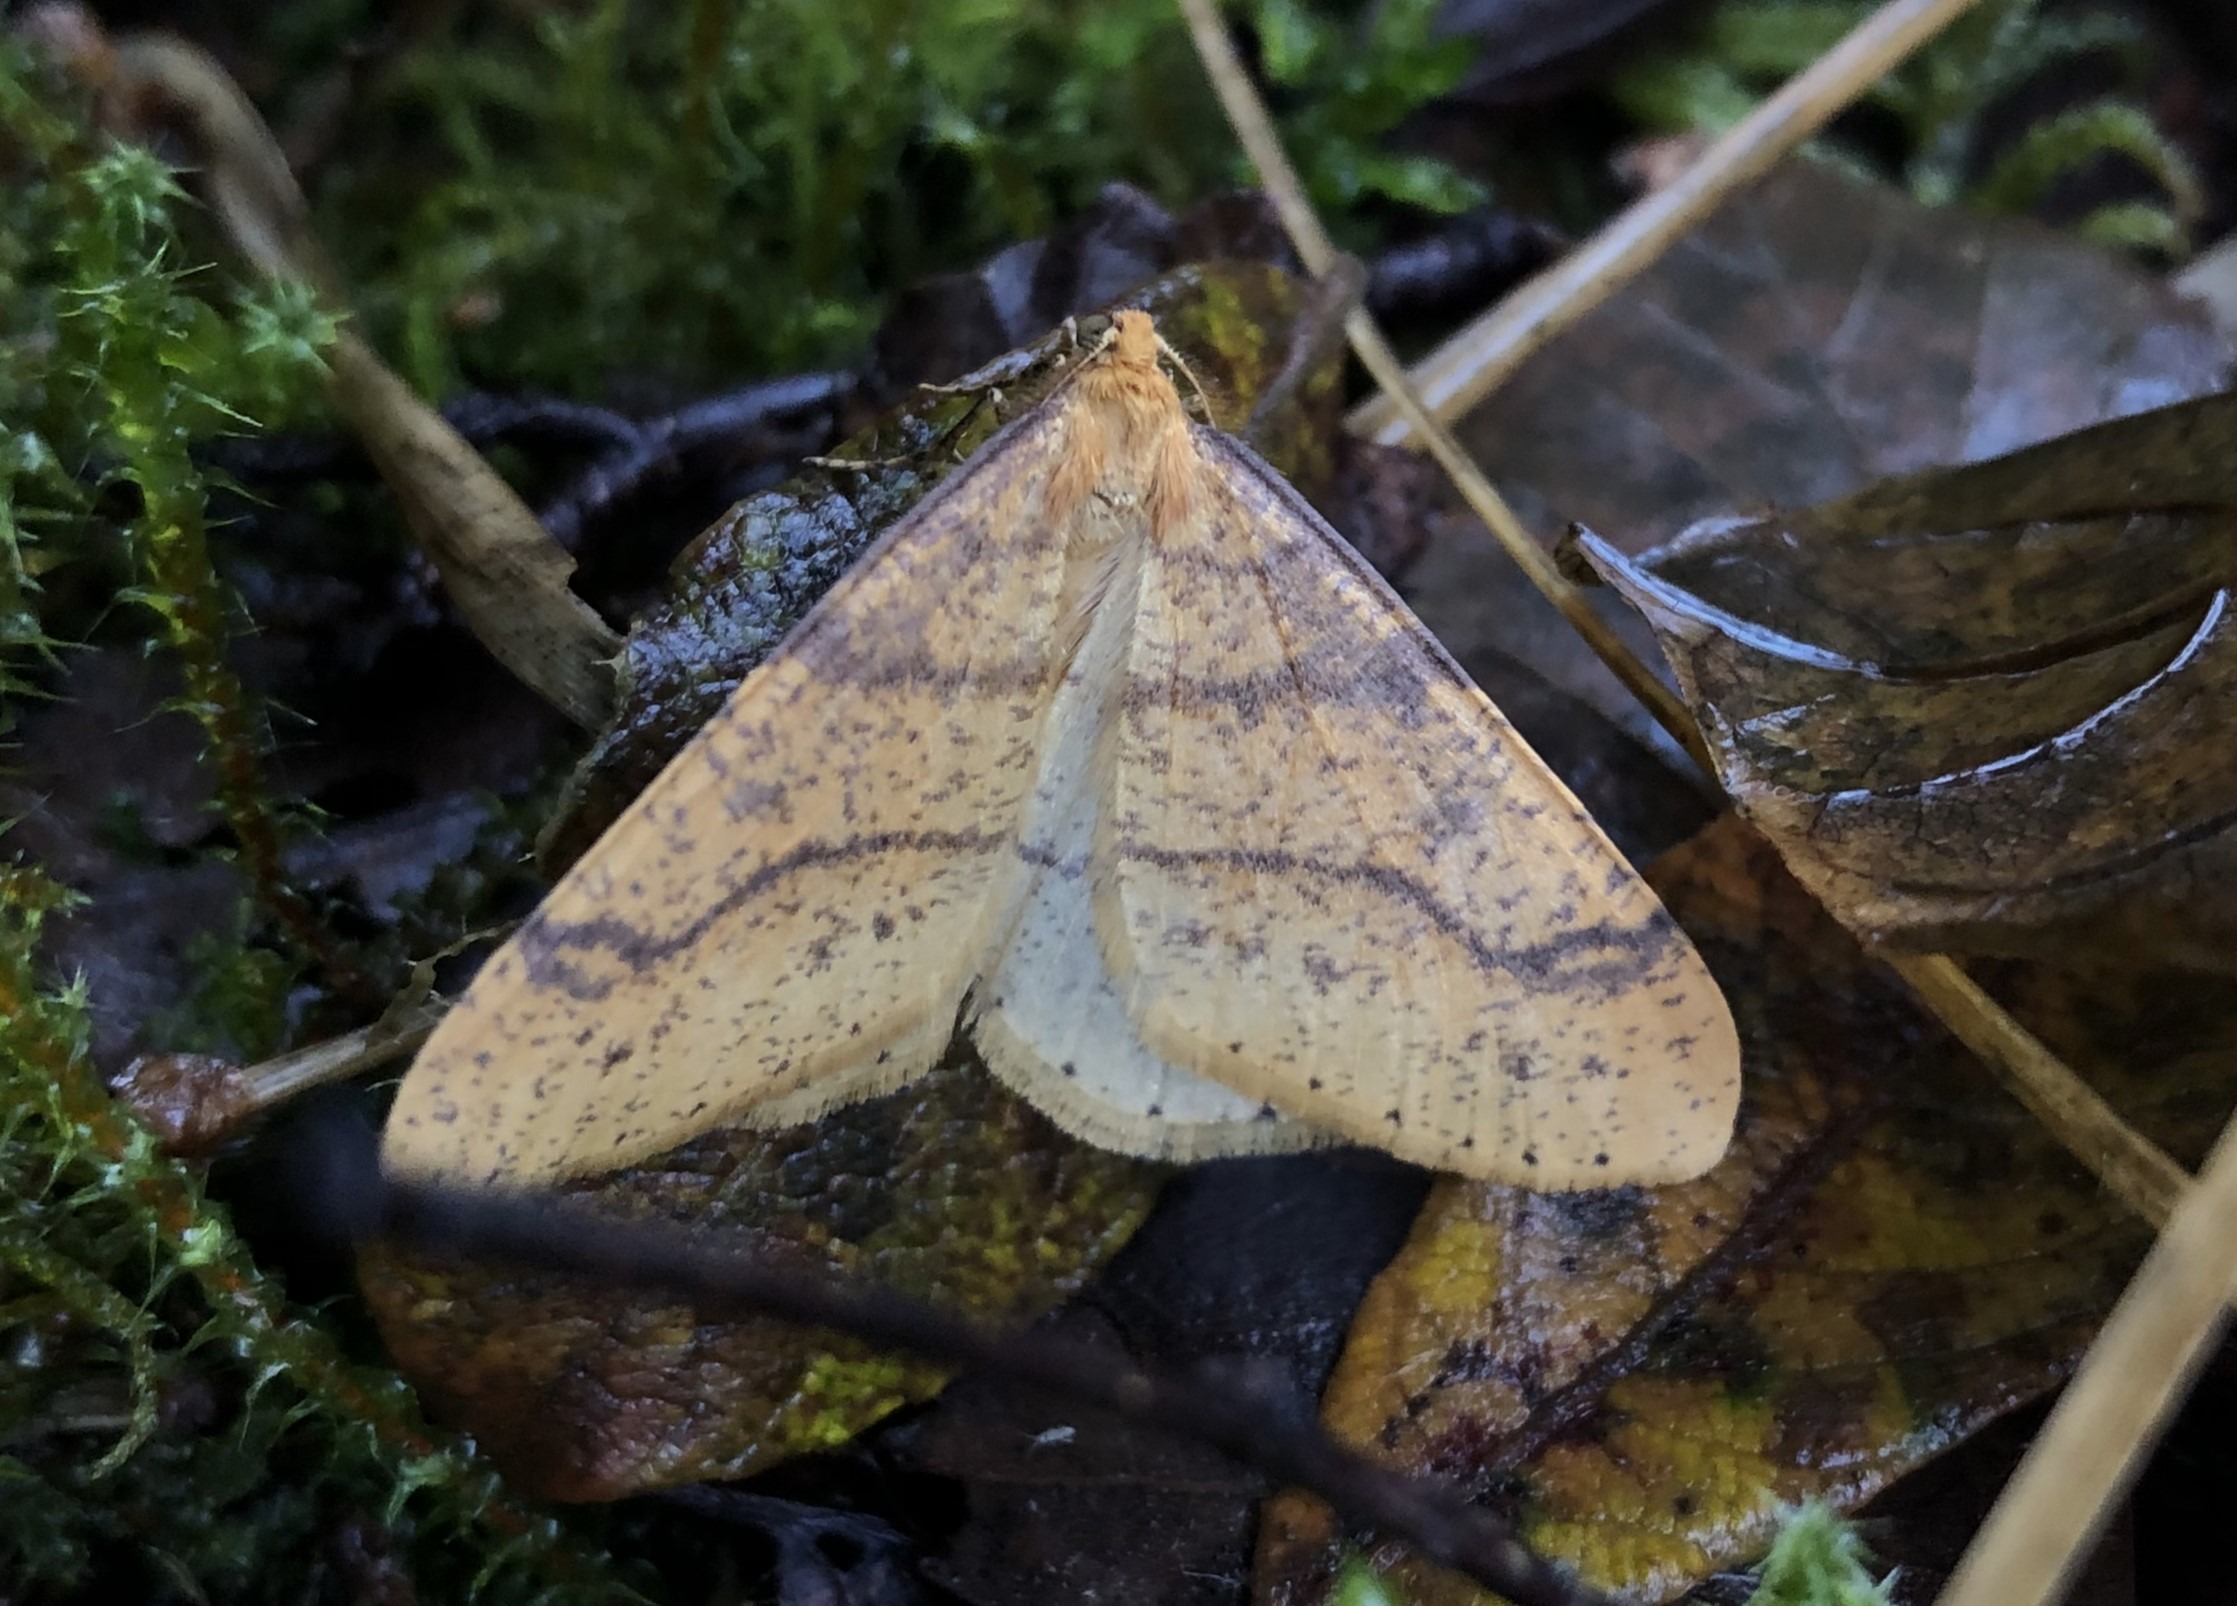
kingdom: Animalia
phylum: Arthropoda
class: Insecta
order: Lepidoptera
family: Geometridae
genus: Agriopis
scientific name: Agriopis aurantiaria
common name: Guldgul frostmåler
